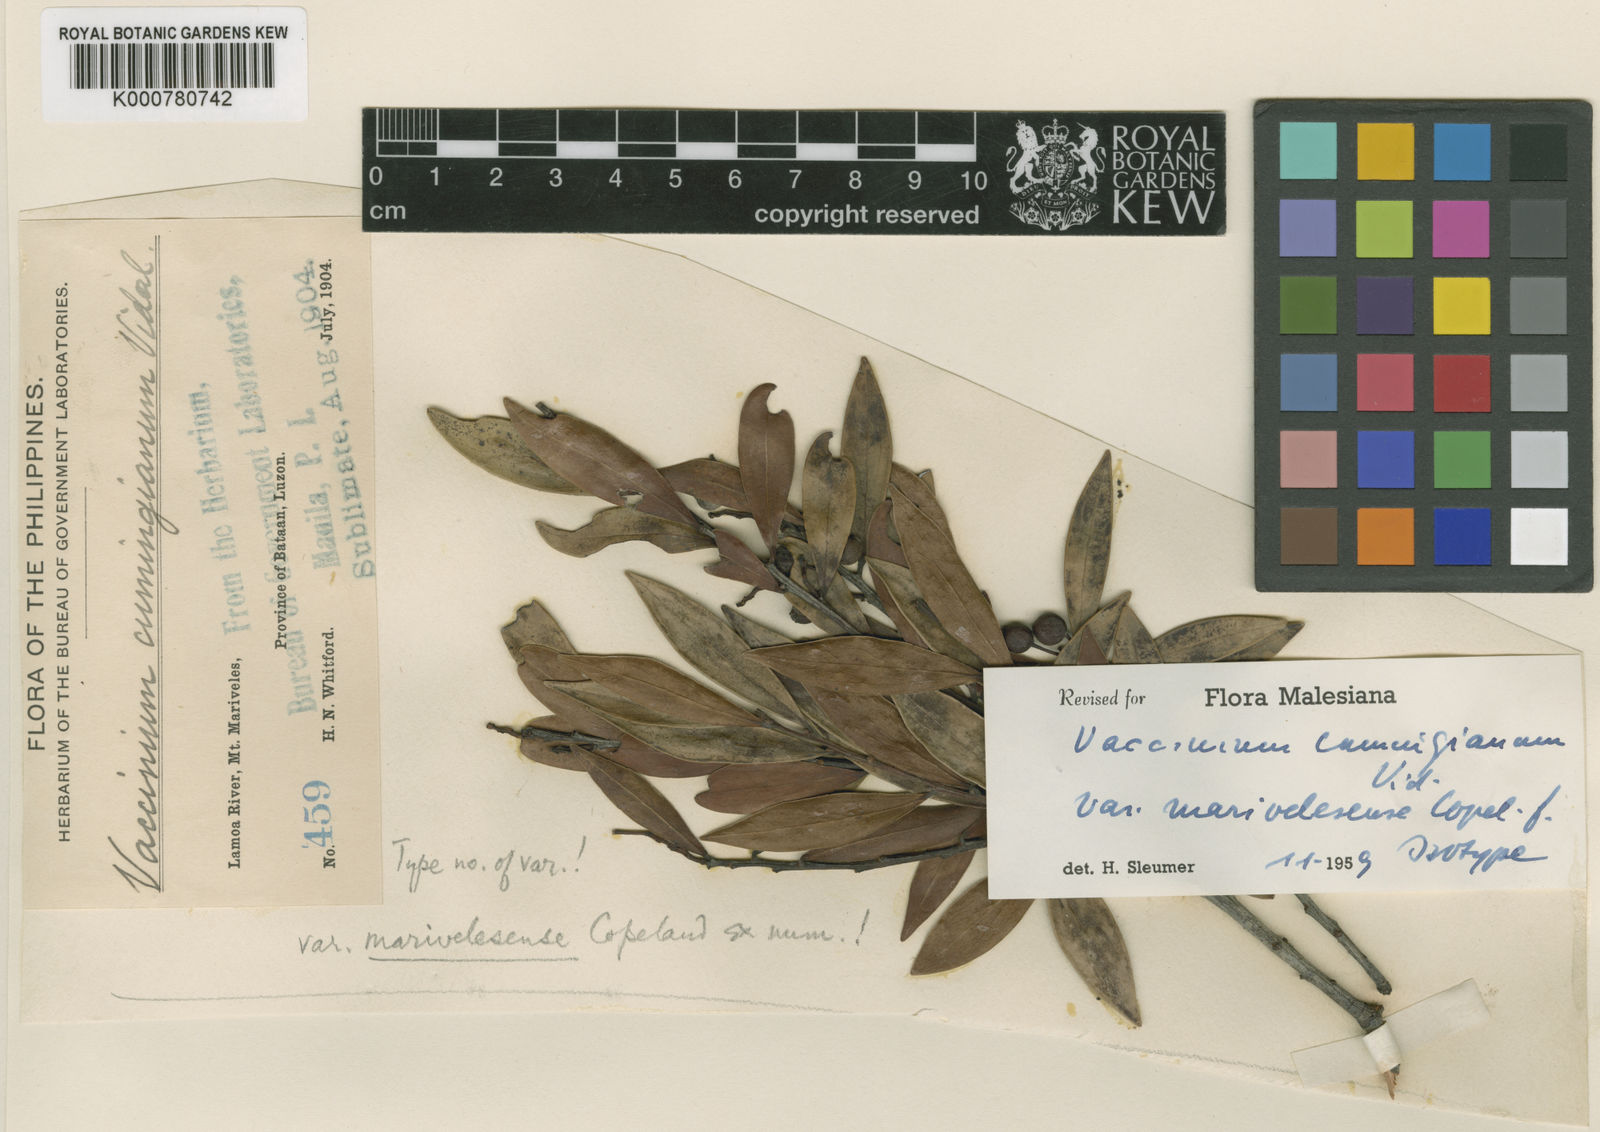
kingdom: Plantae
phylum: Tracheophyta
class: Magnoliopsida
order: Ericales
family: Ericaceae
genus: Vaccinium
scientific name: Vaccinium cumingianum
